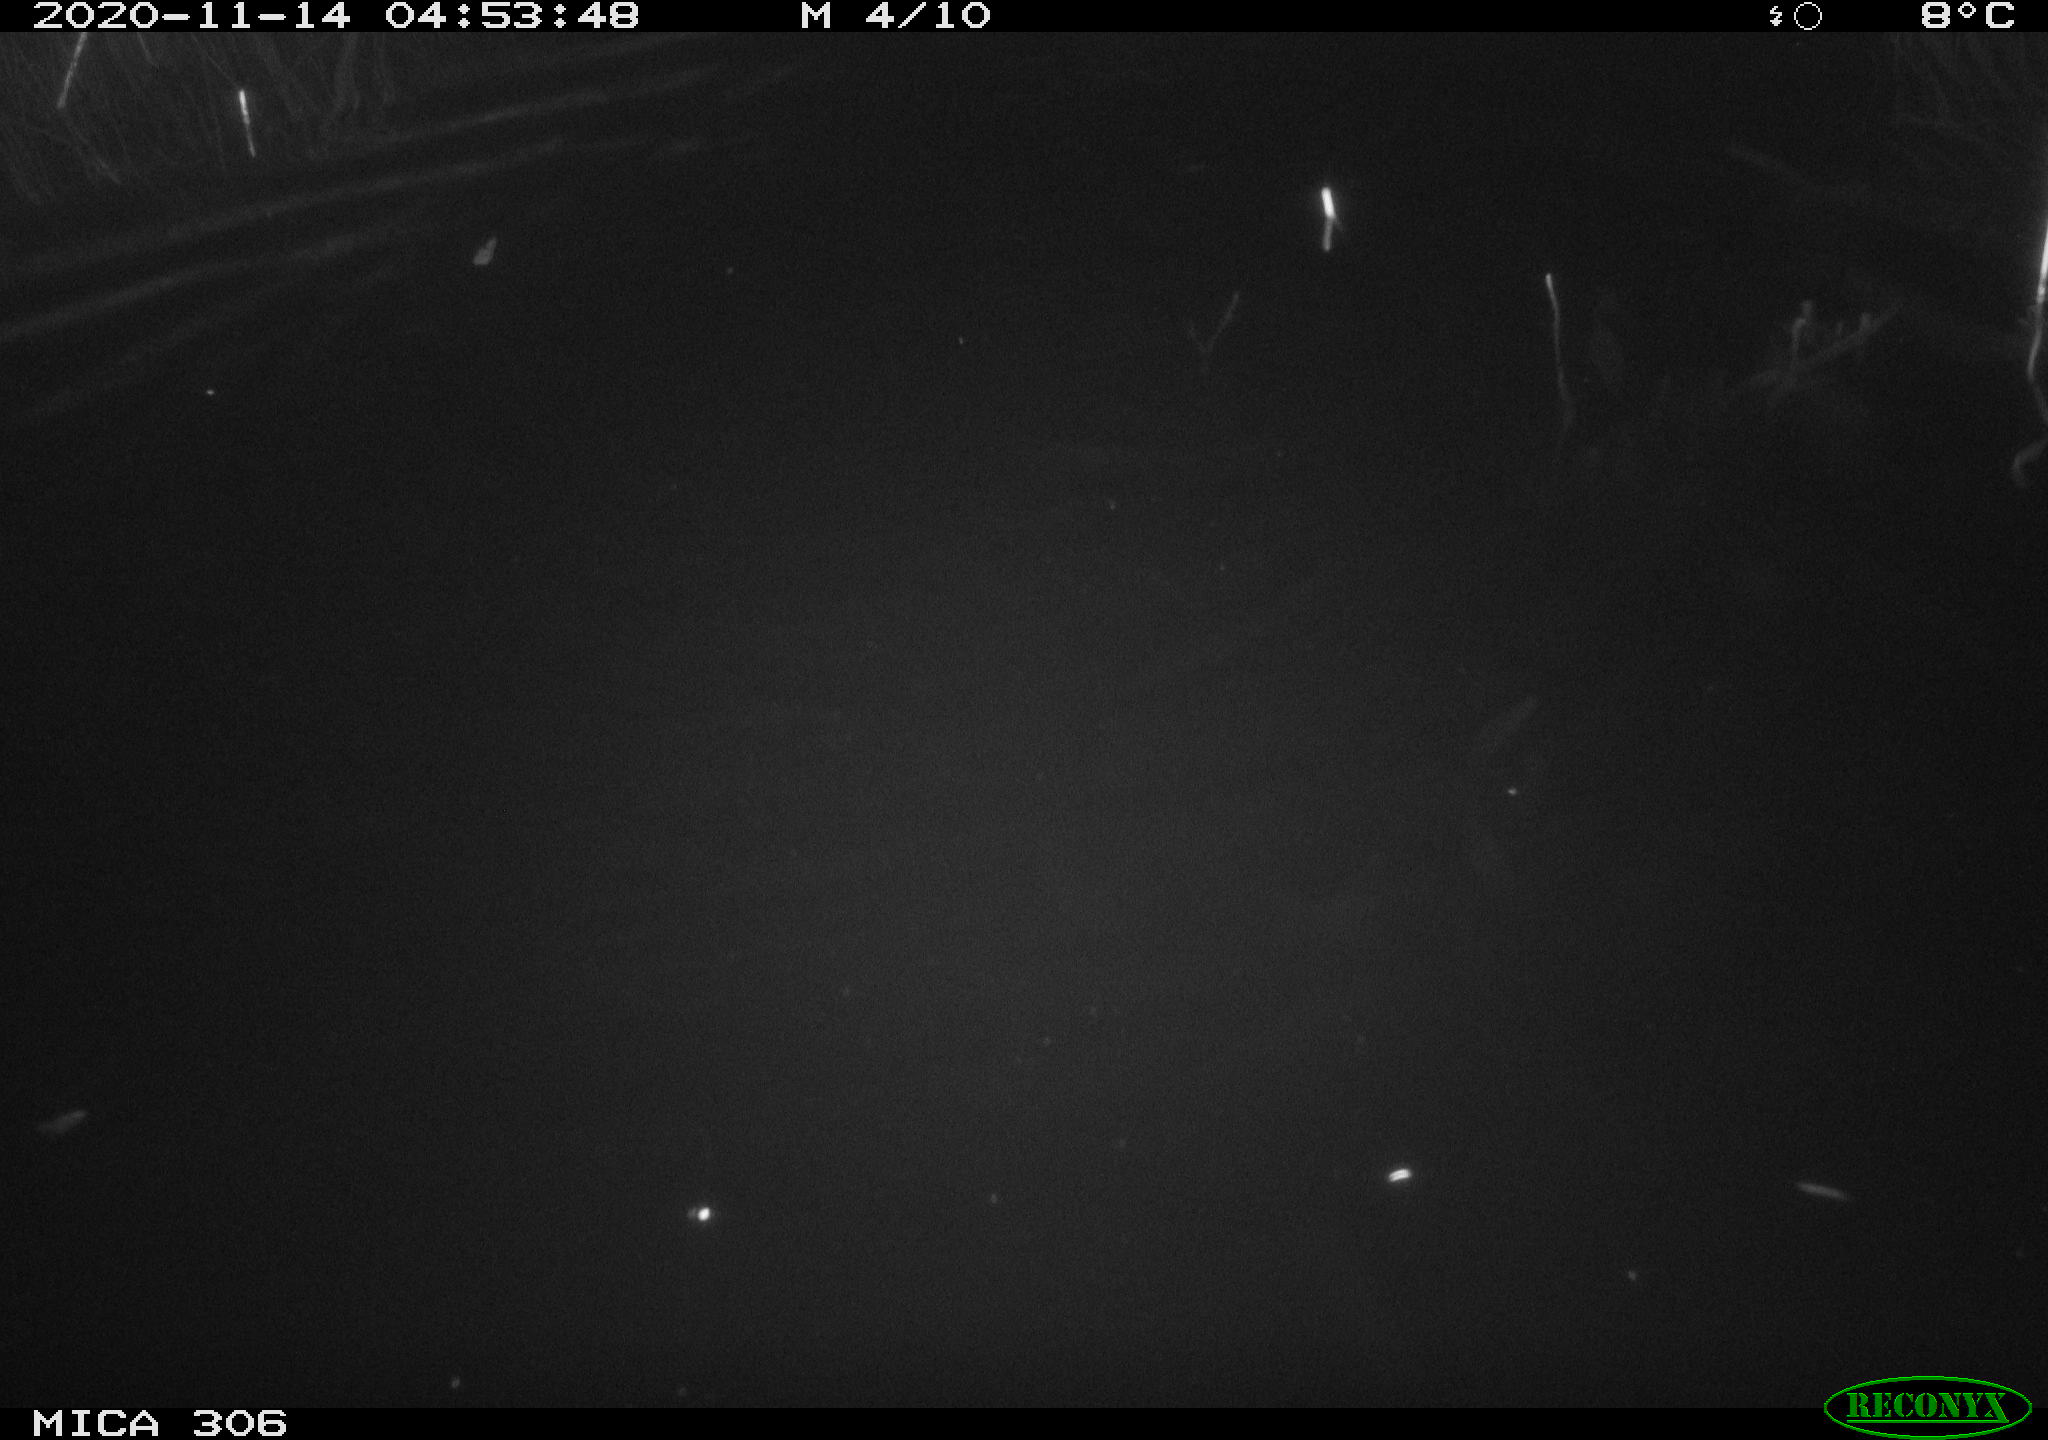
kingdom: Animalia
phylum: Chordata
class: Mammalia
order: Rodentia
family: Cricetidae
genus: Ondatra
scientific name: Ondatra zibethicus
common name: Muskrat
